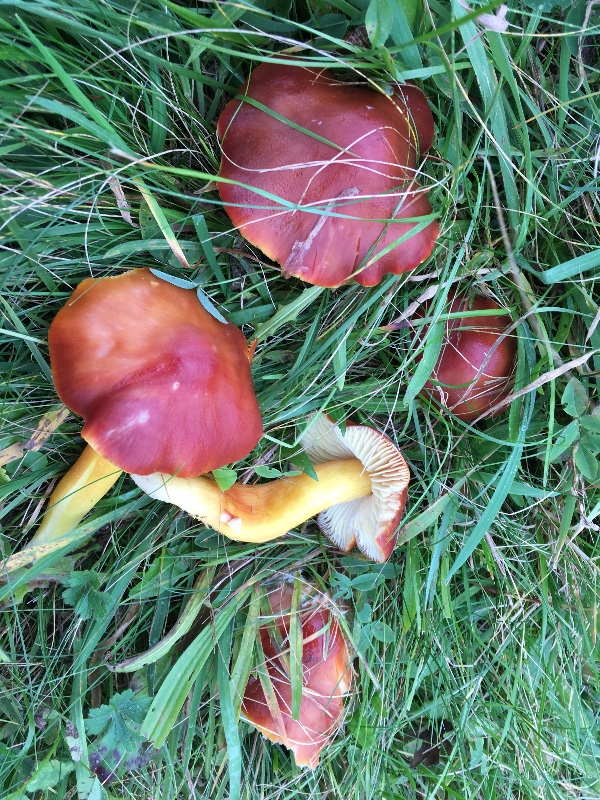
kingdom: Fungi
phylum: Basidiomycota
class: Agaricomycetes
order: Agaricales
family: Hygrophoraceae
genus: Hygrocybe
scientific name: Hygrocybe punicea
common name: skarlagen-vokshat
